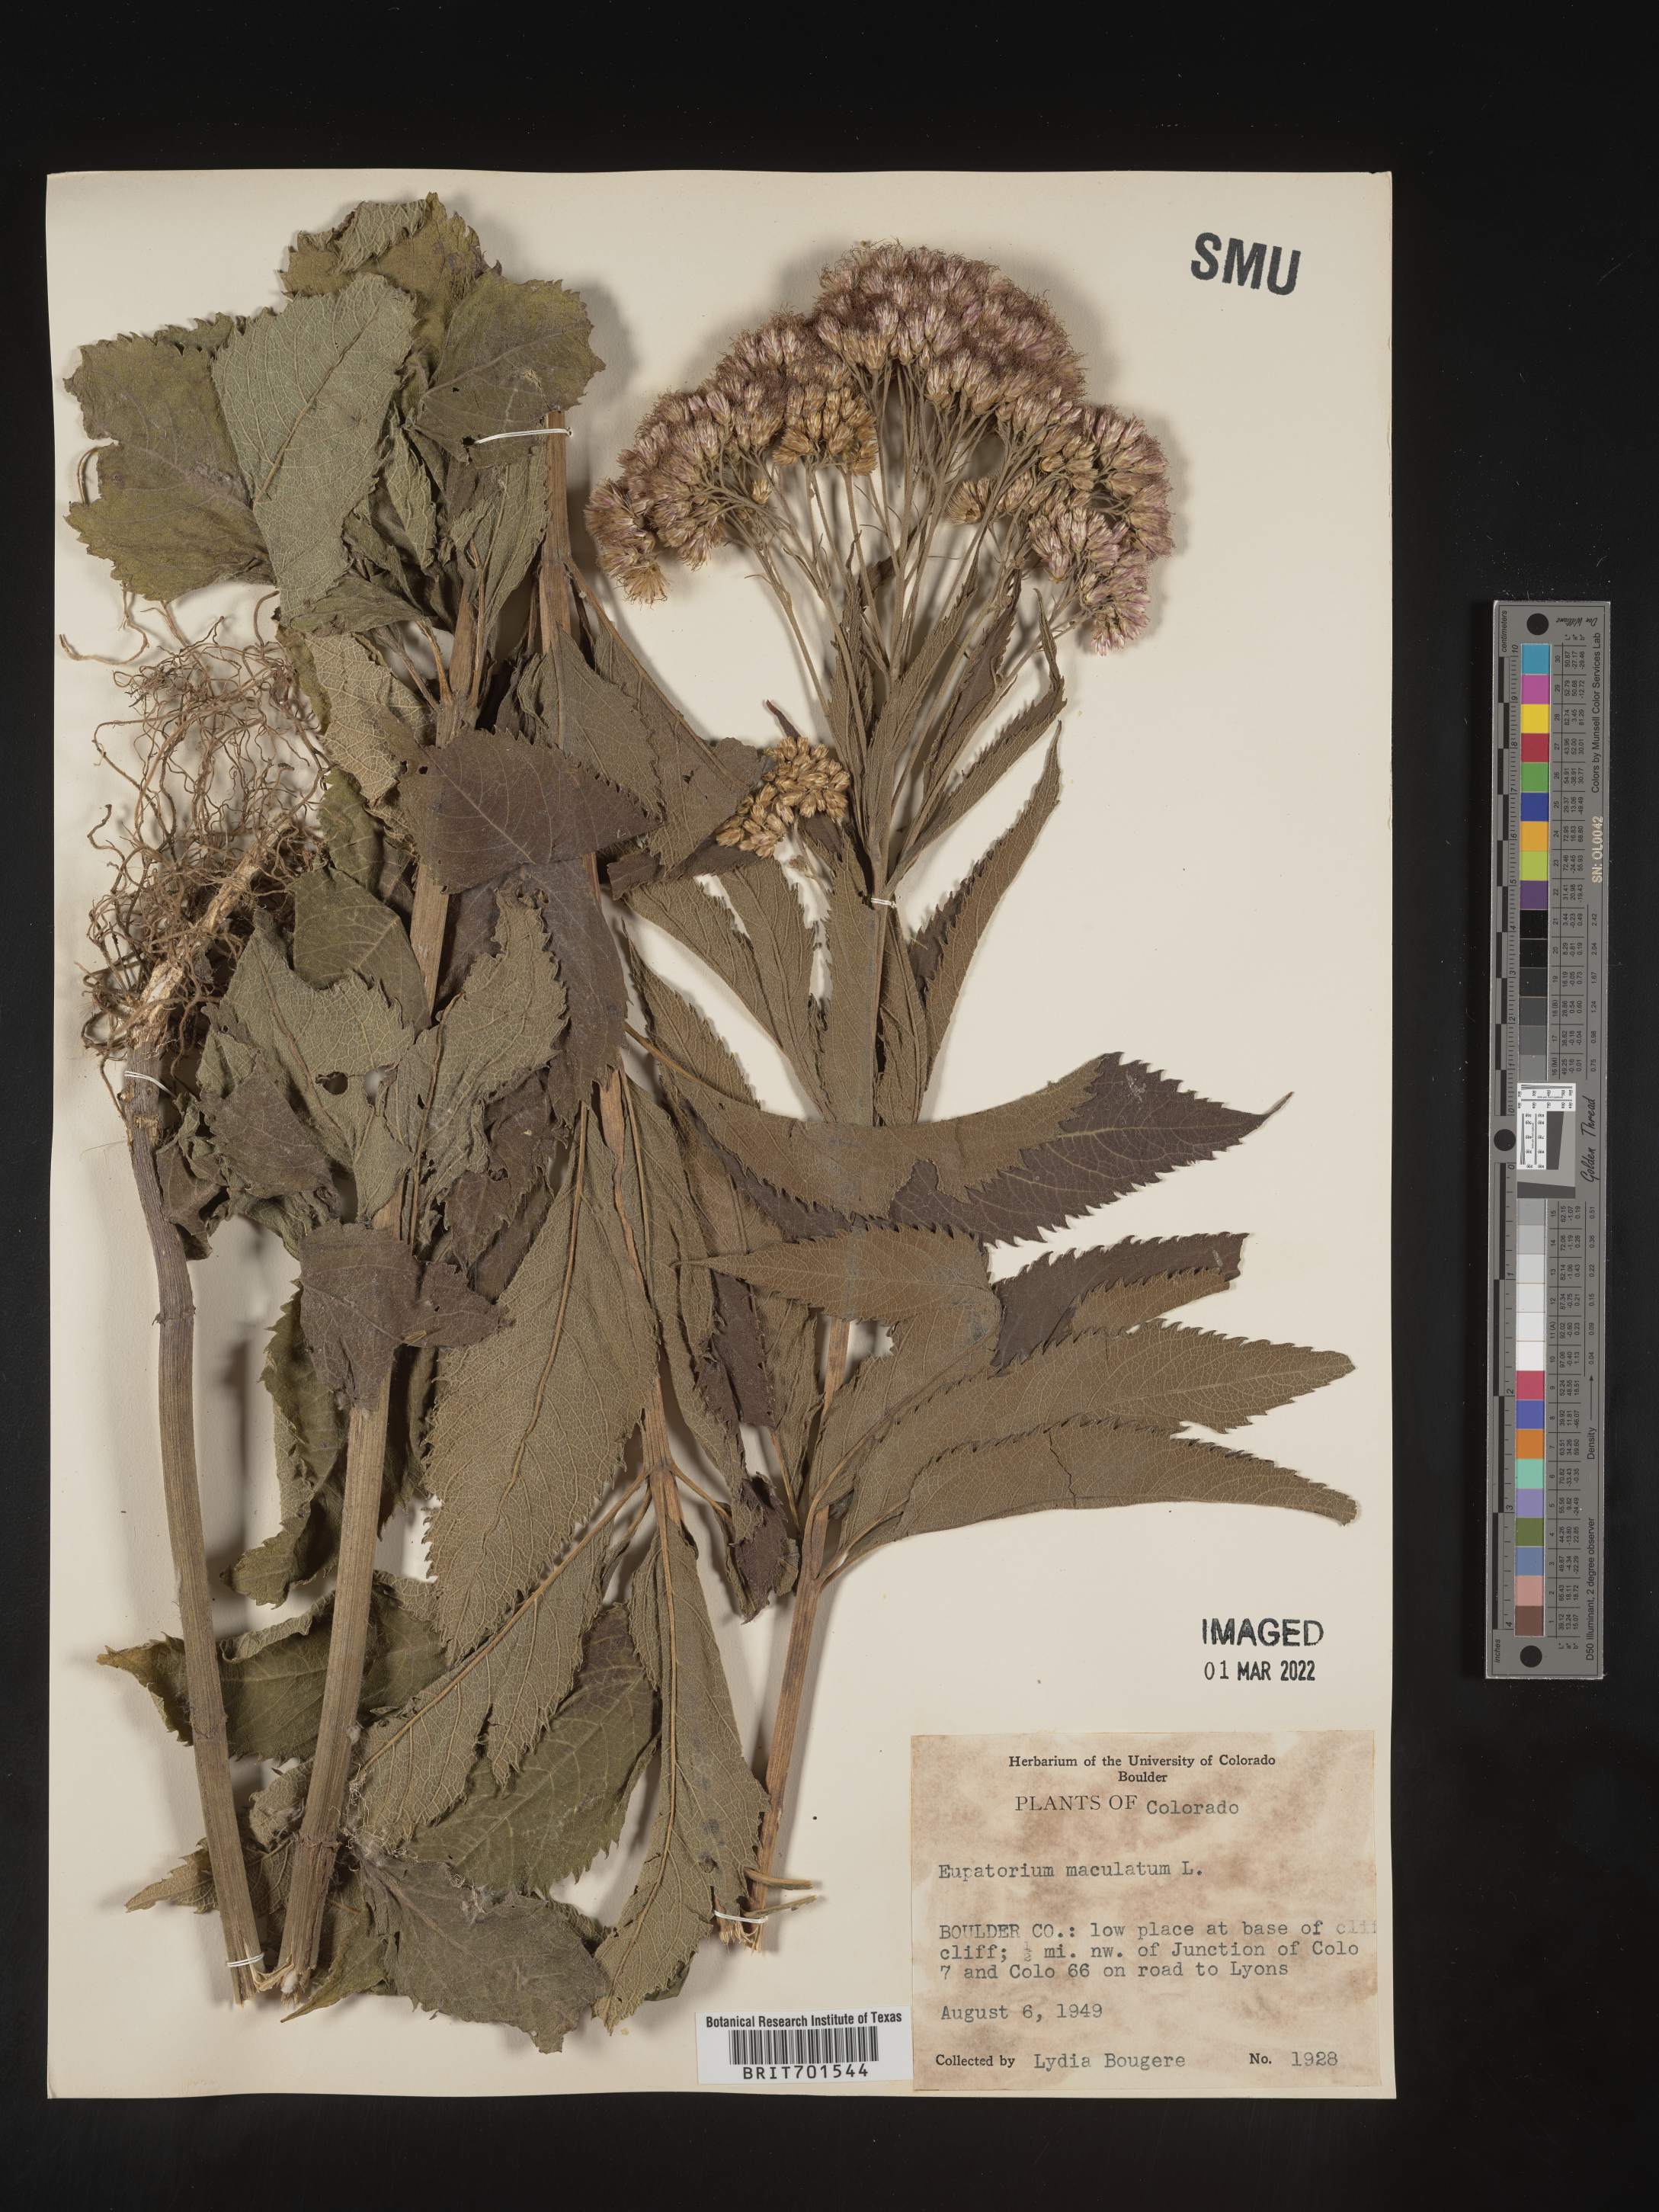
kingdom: Plantae
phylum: Tracheophyta
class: Magnoliopsida
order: Asterales
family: Asteraceae
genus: Eutrochium
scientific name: Eutrochium maculatum
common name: Spotted joe pye weed
